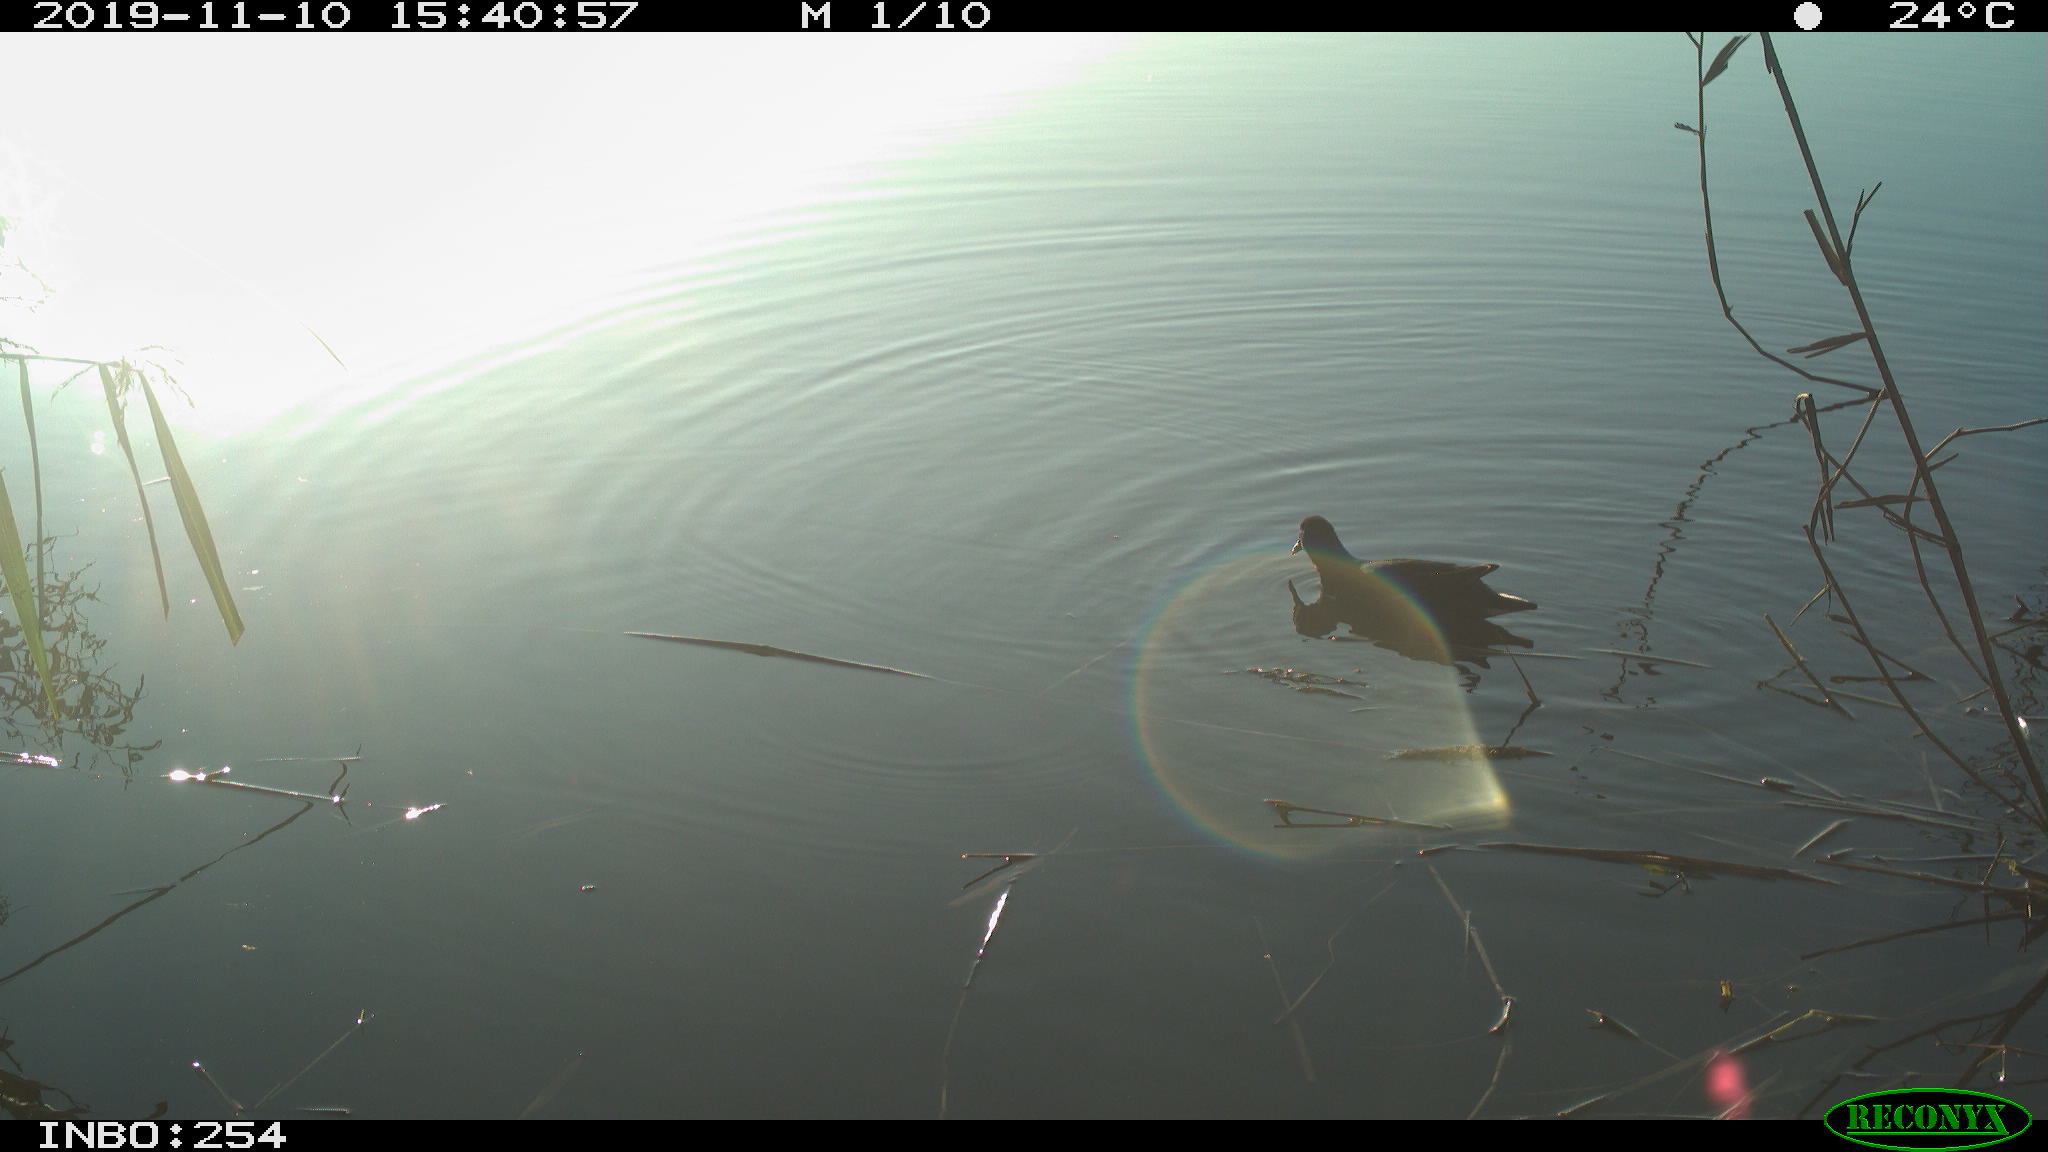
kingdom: Animalia
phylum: Chordata
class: Aves
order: Gruiformes
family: Rallidae
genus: Gallinula
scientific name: Gallinula chloropus
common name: Common moorhen
